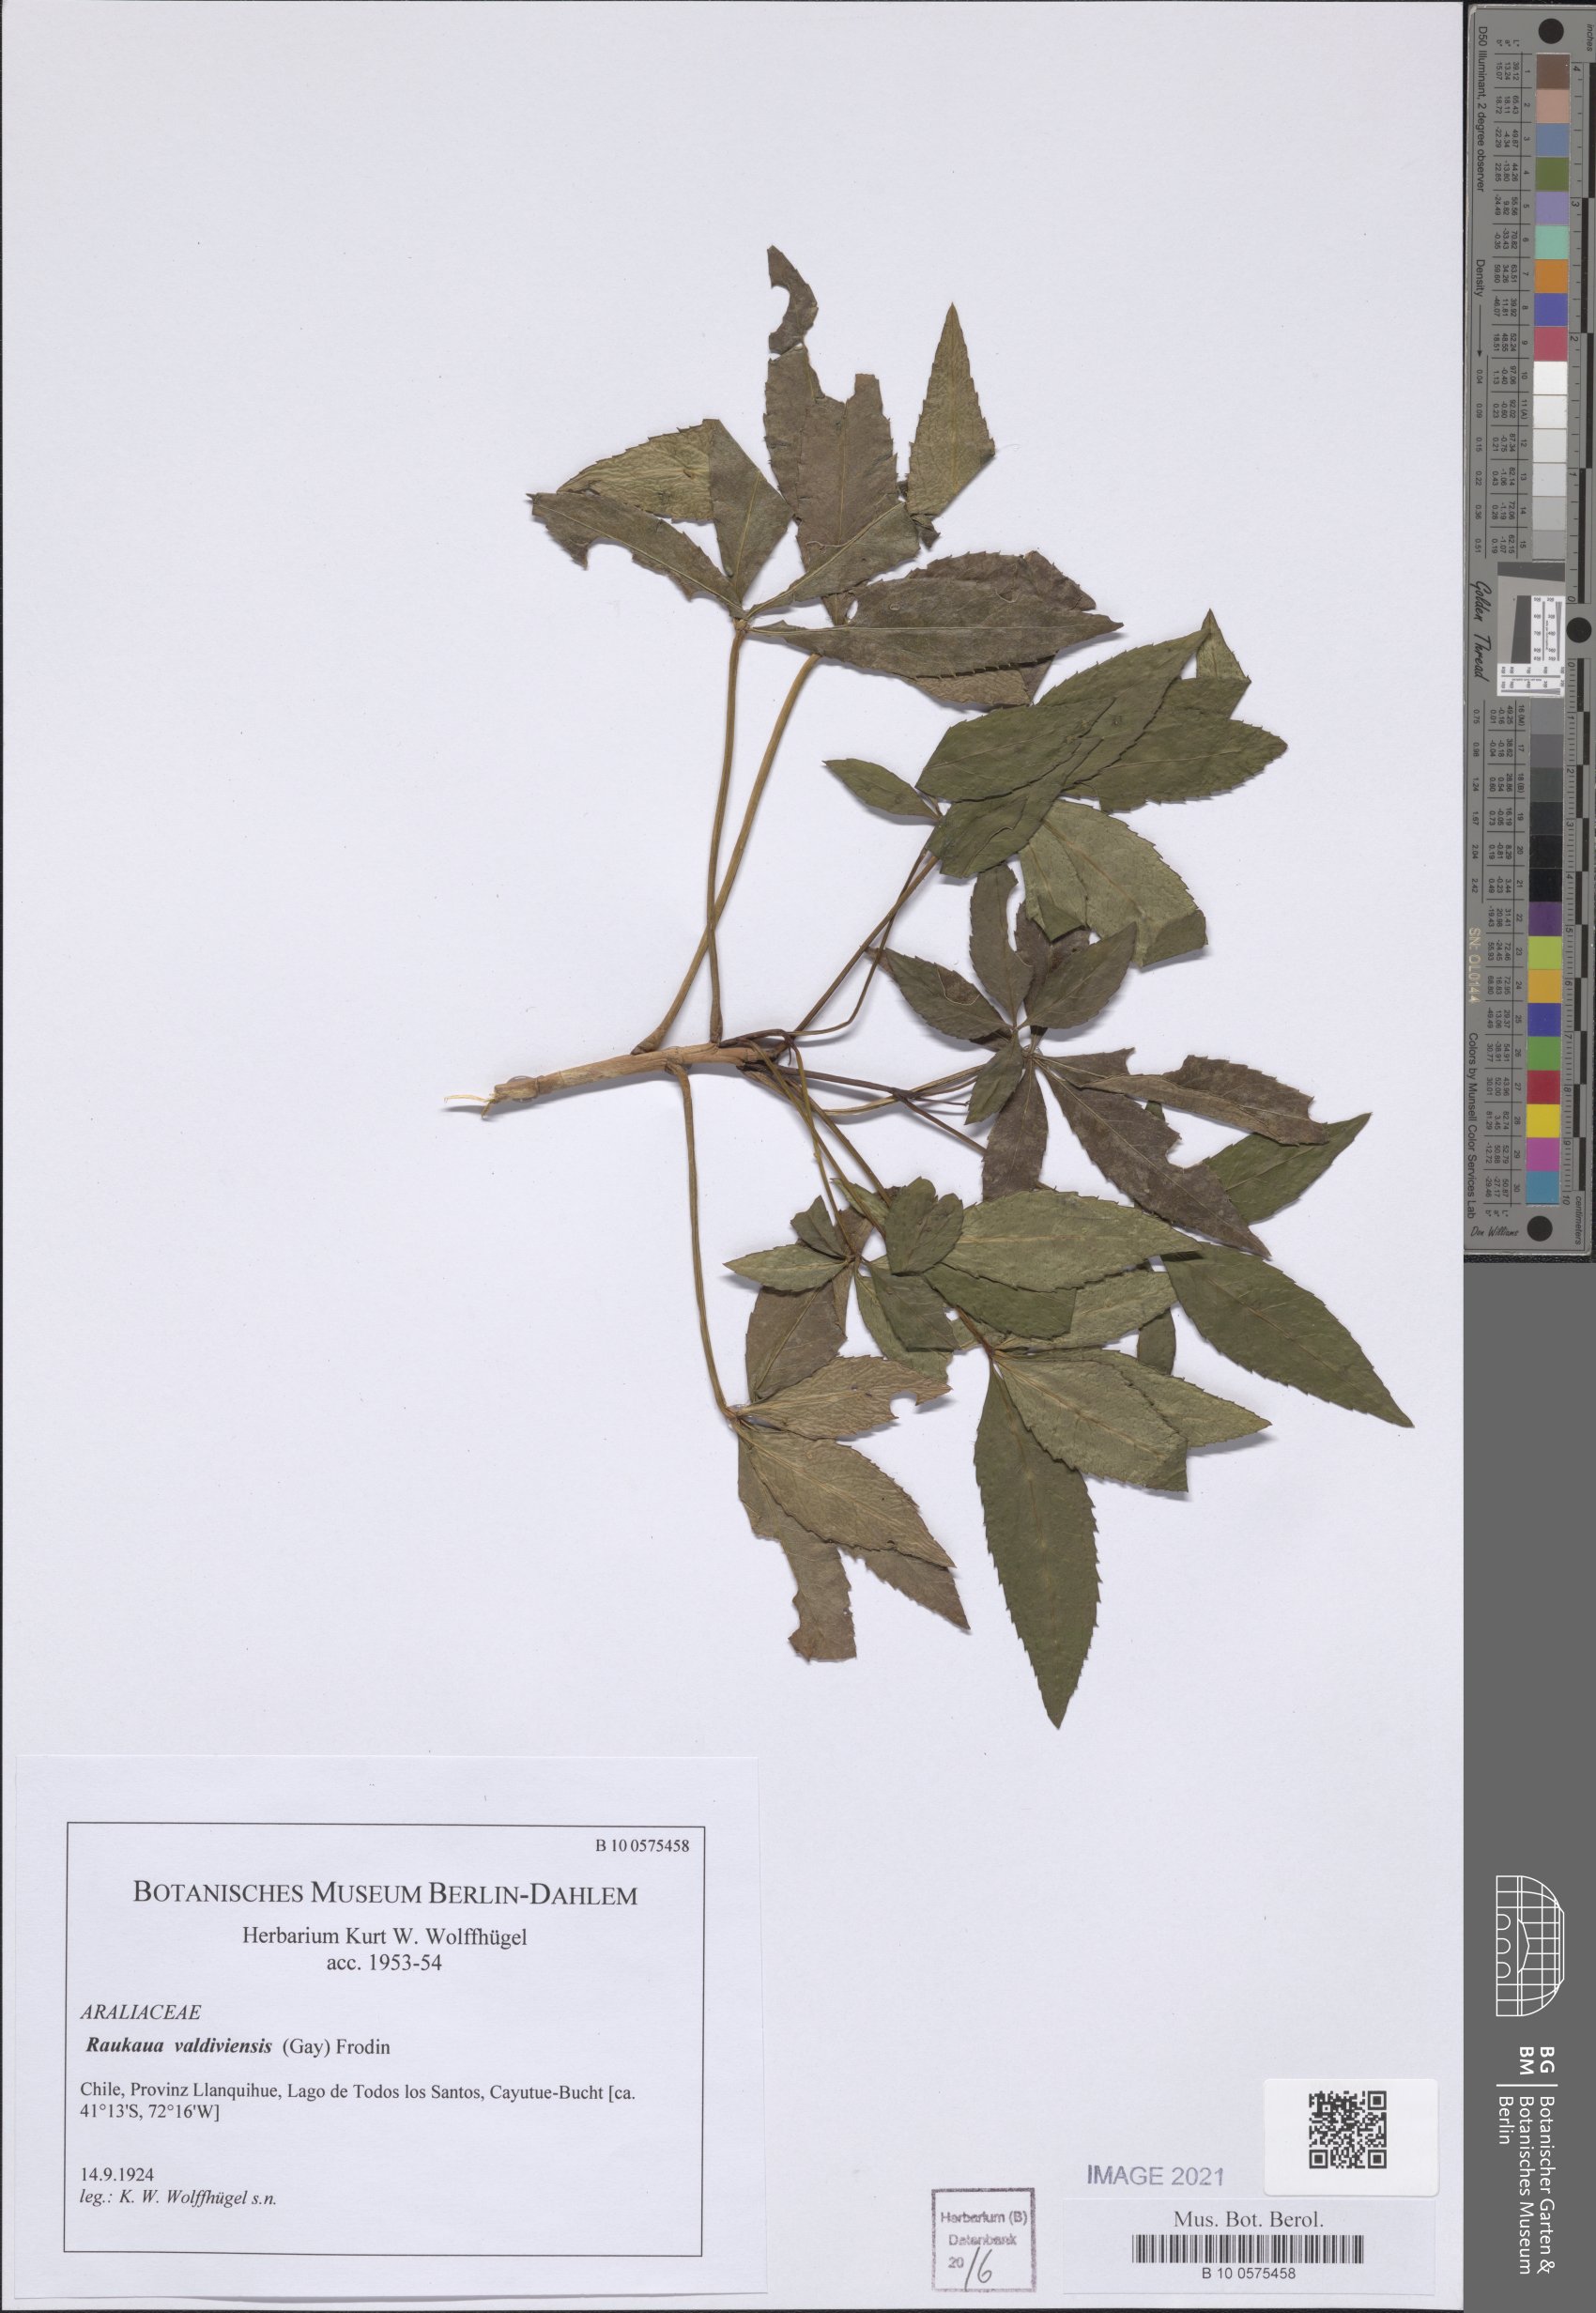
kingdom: Plantae
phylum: Tracheophyta
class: Magnoliopsida
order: Apiales
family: Araliaceae
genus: Raukaua
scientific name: Raukaua valdiviensis
